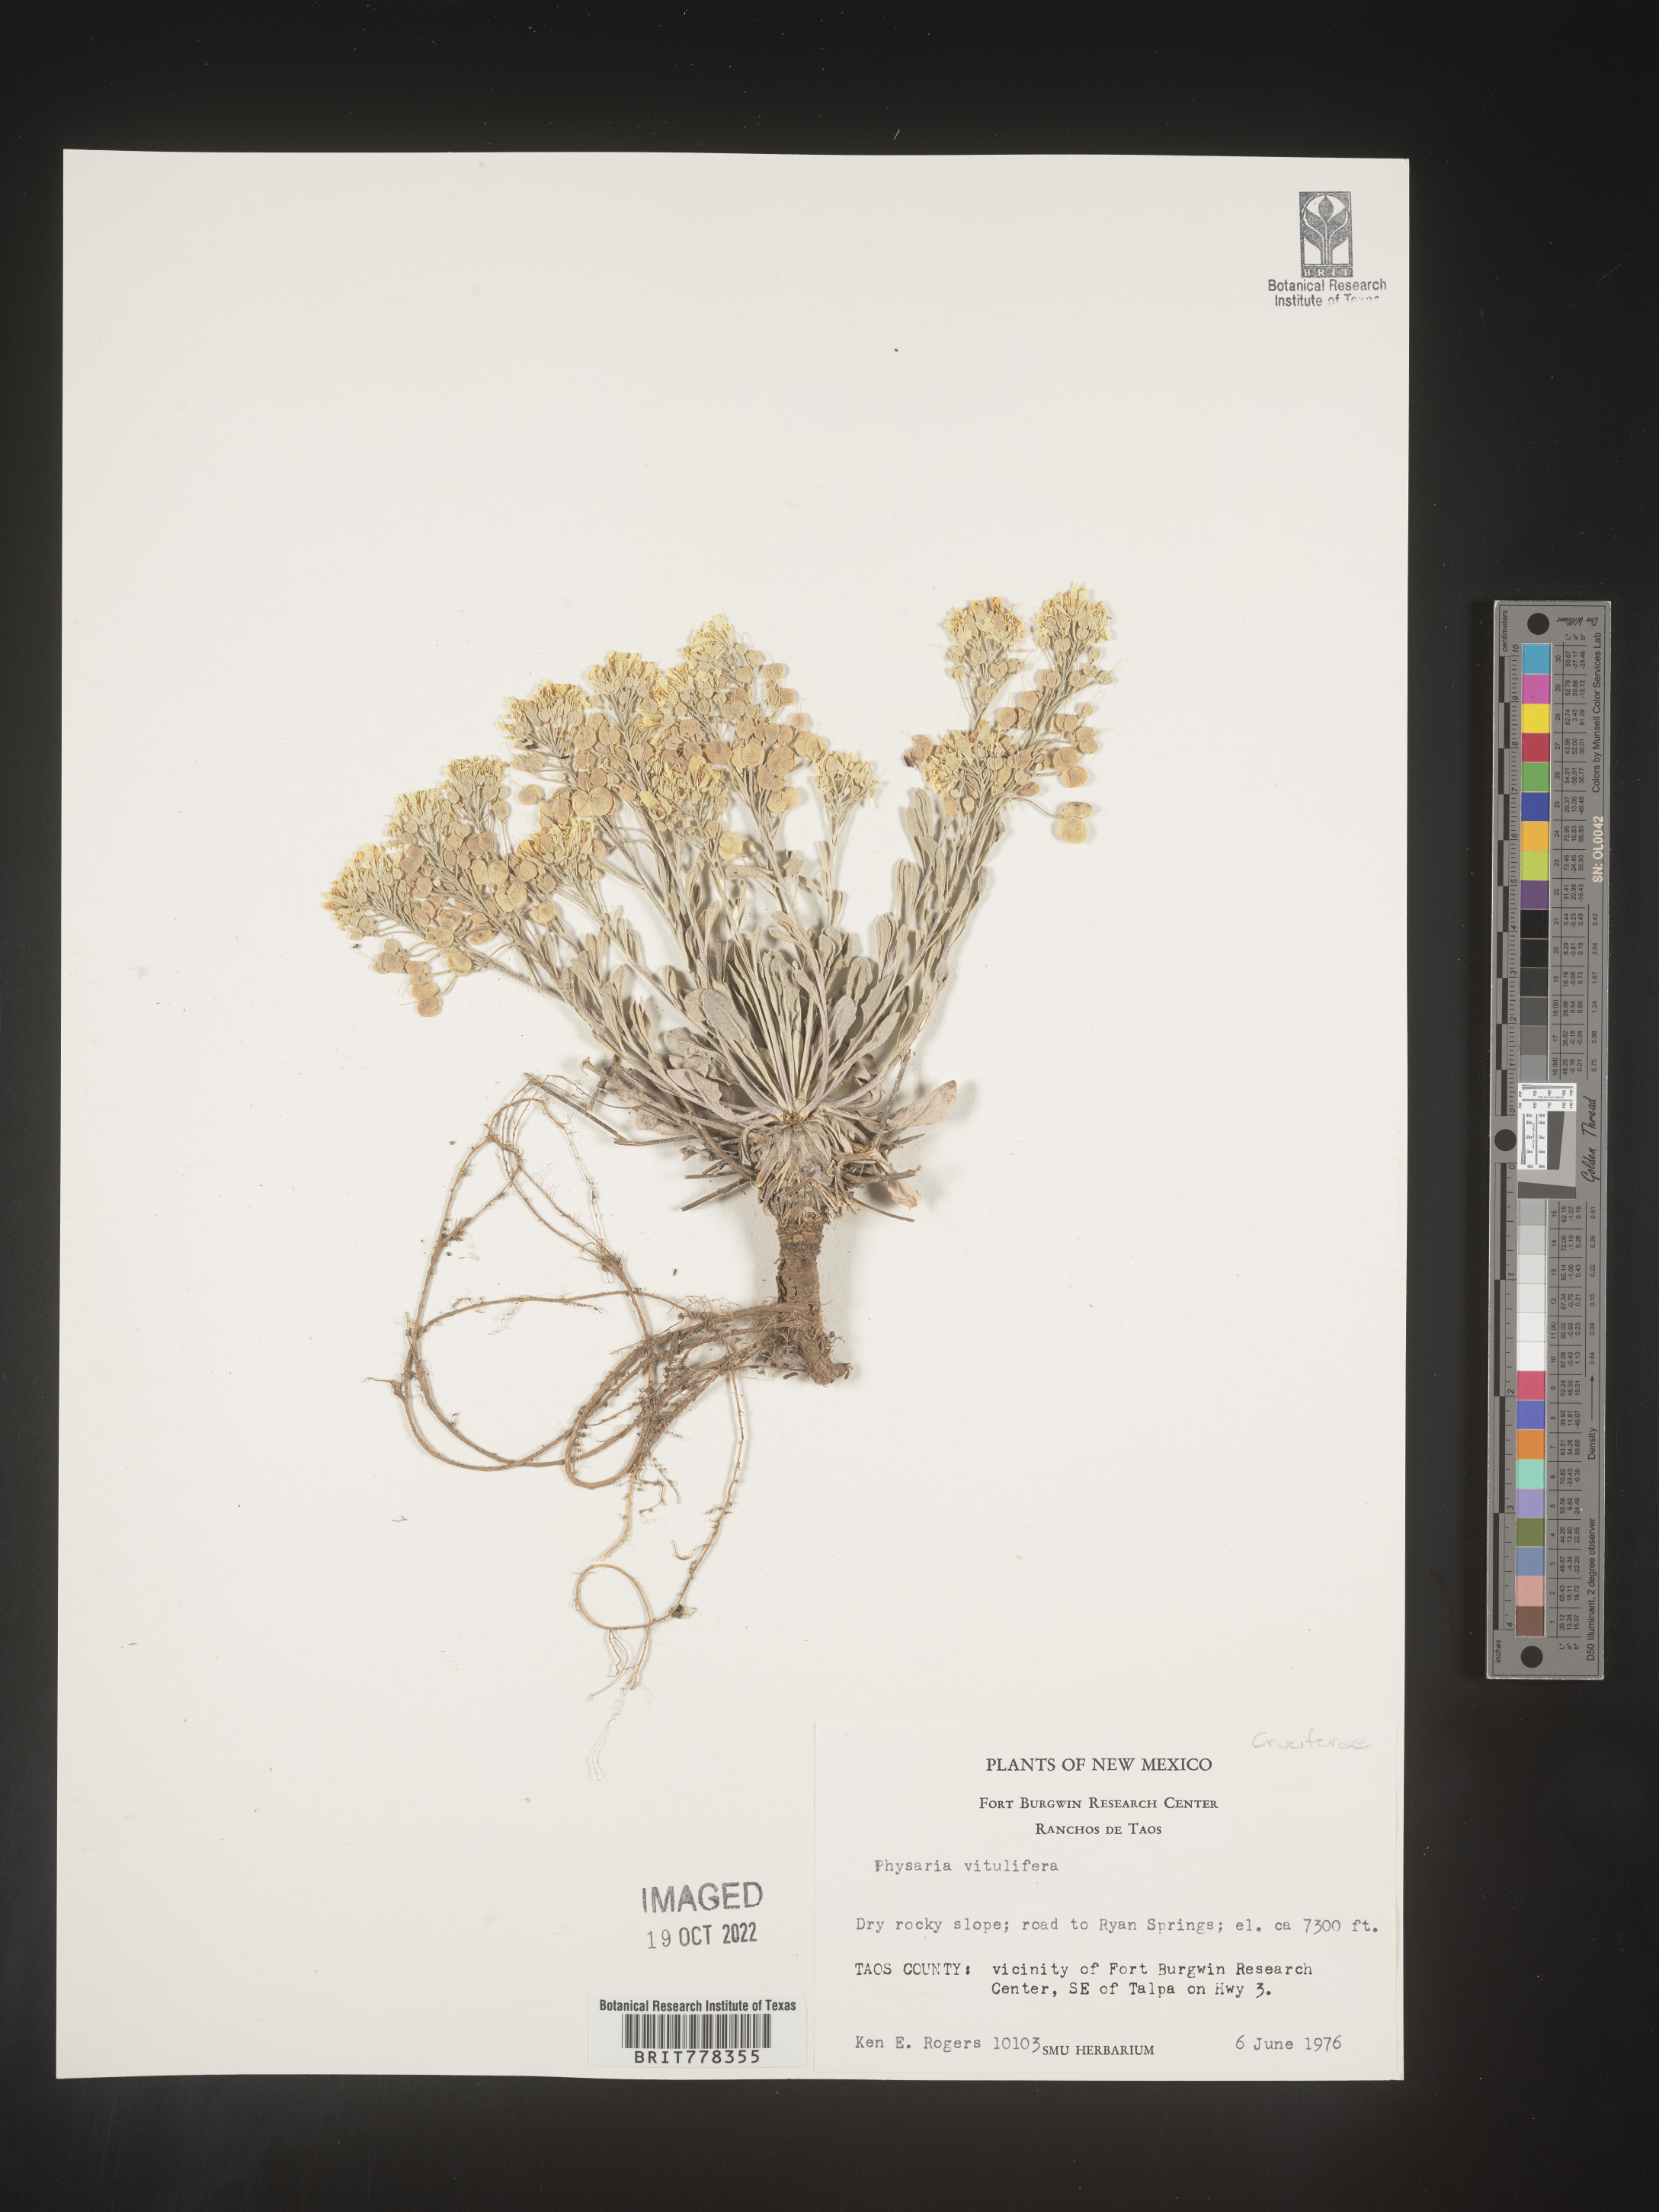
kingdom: Plantae
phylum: Tracheophyta
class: Magnoliopsida
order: Brassicales
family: Brassicaceae
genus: Physaria
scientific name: Physaria
